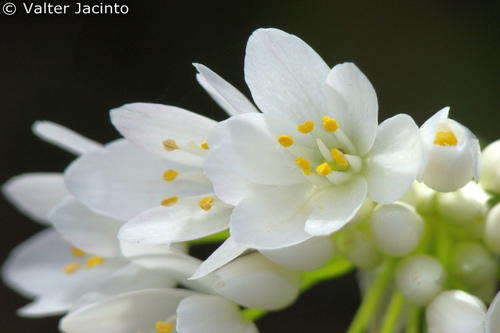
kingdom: Plantae
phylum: Tracheophyta
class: Liliopsida
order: Asparagales
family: Amaryllidaceae
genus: Allium
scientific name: Allium neapolitanum
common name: Neapolitan garlic
